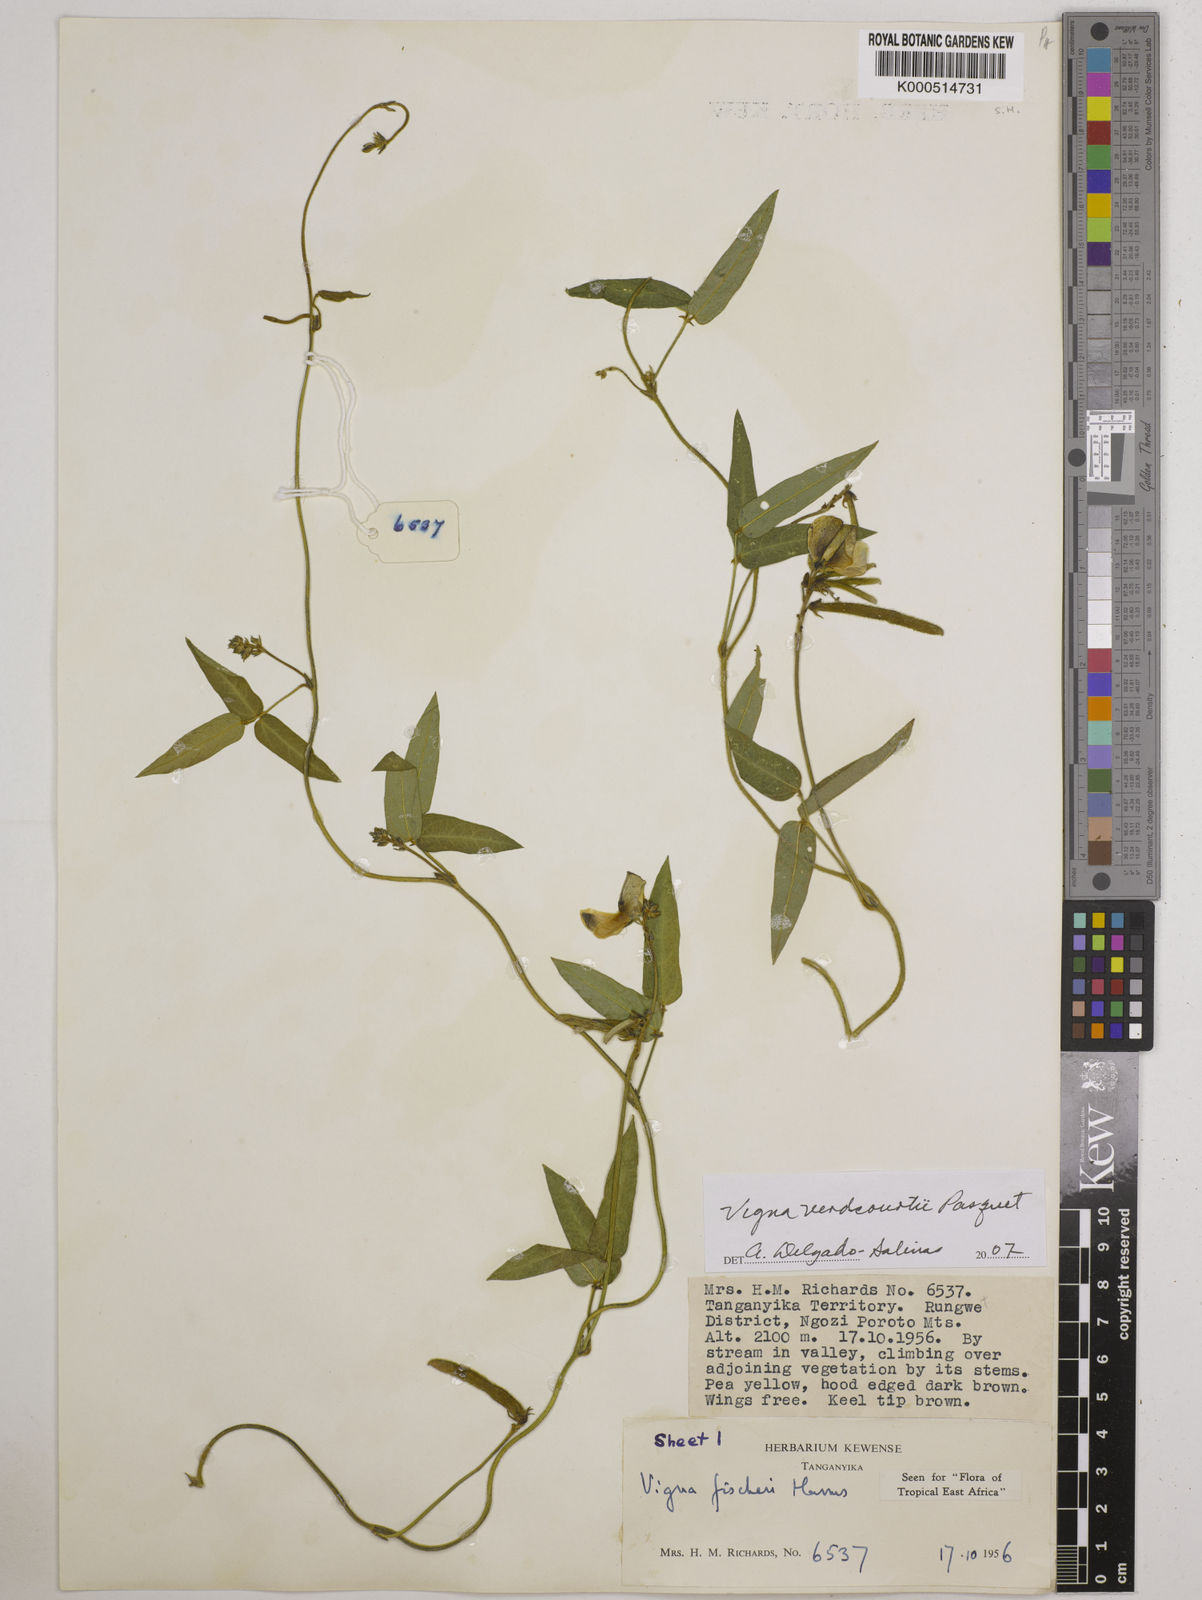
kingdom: Plantae
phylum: Tracheophyta
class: Magnoliopsida
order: Fabales
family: Fabaceae
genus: Vigna
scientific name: Vigna
